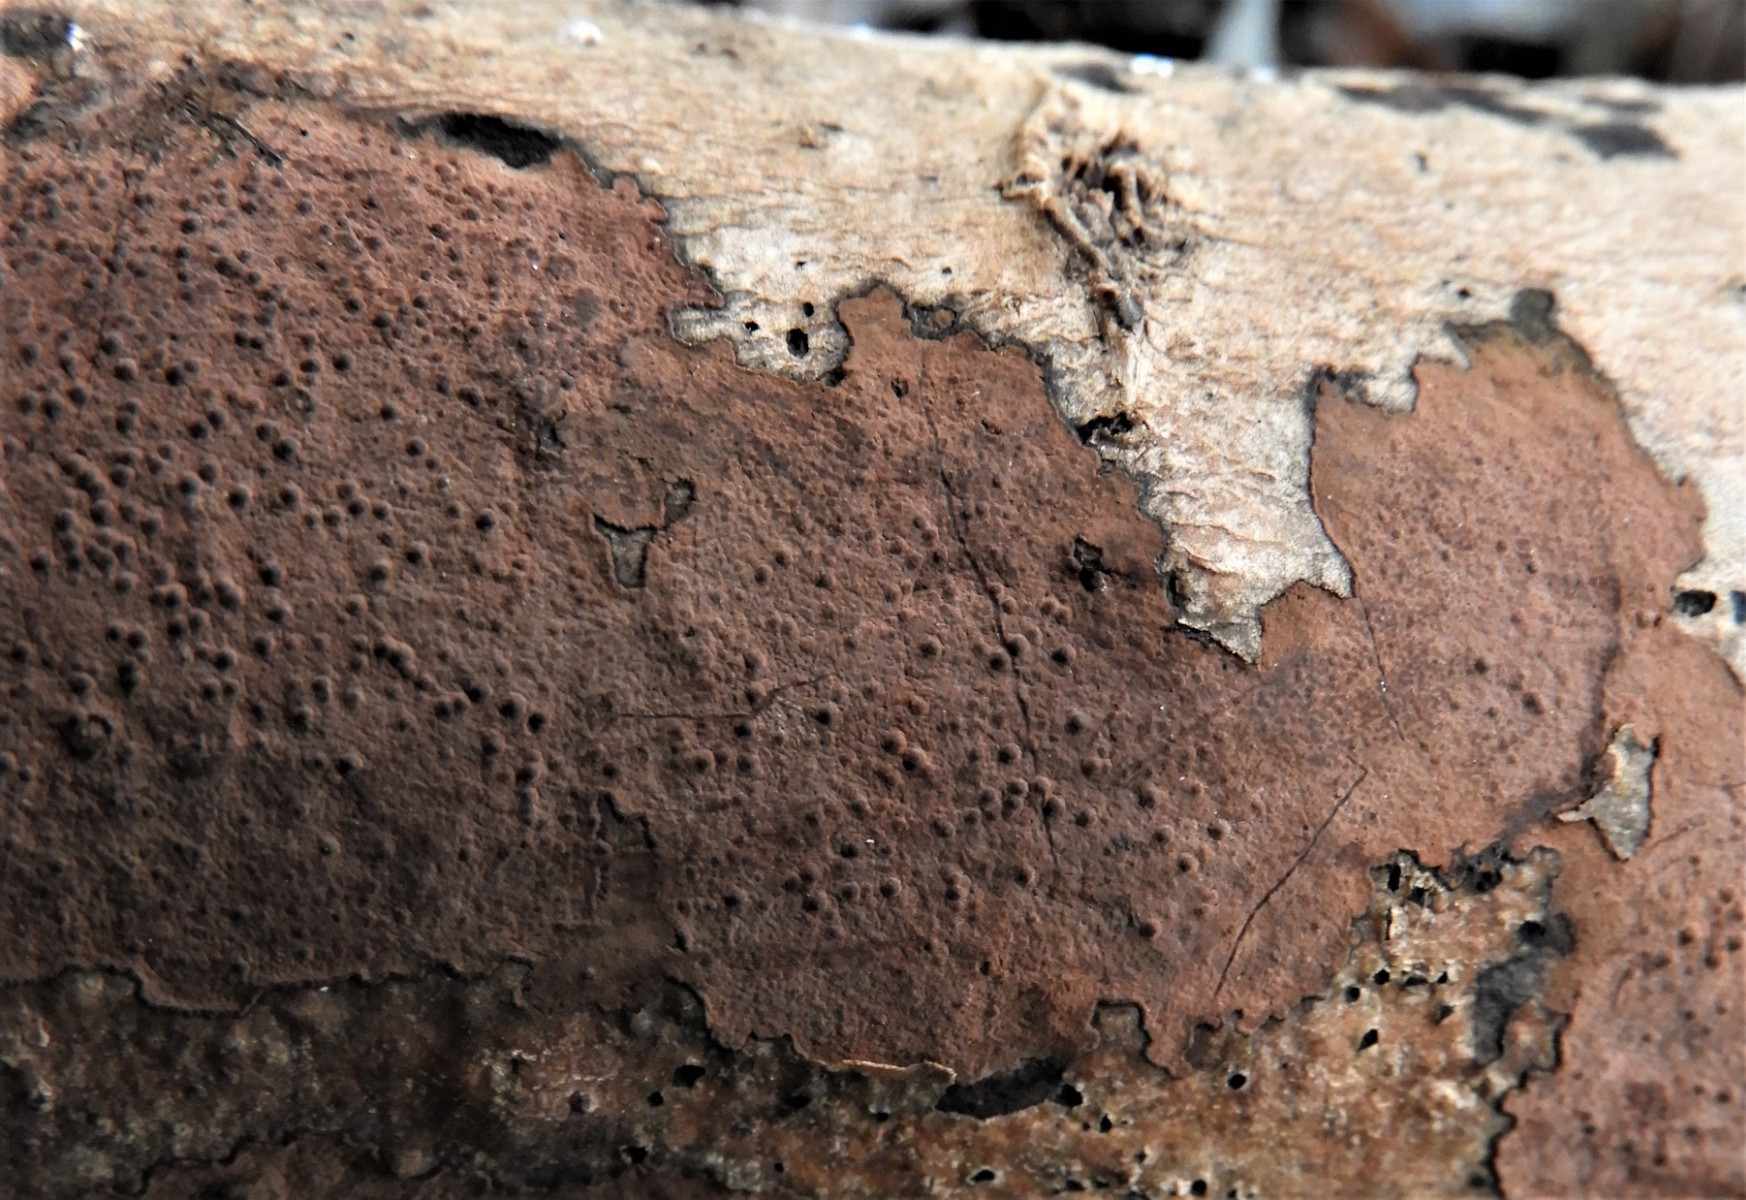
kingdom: Fungi
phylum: Ascomycota
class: Sordariomycetes
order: Xylariales
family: Hypoxylaceae
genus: Hypoxylon
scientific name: Hypoxylon petriniae
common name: nedsænket kulbær
